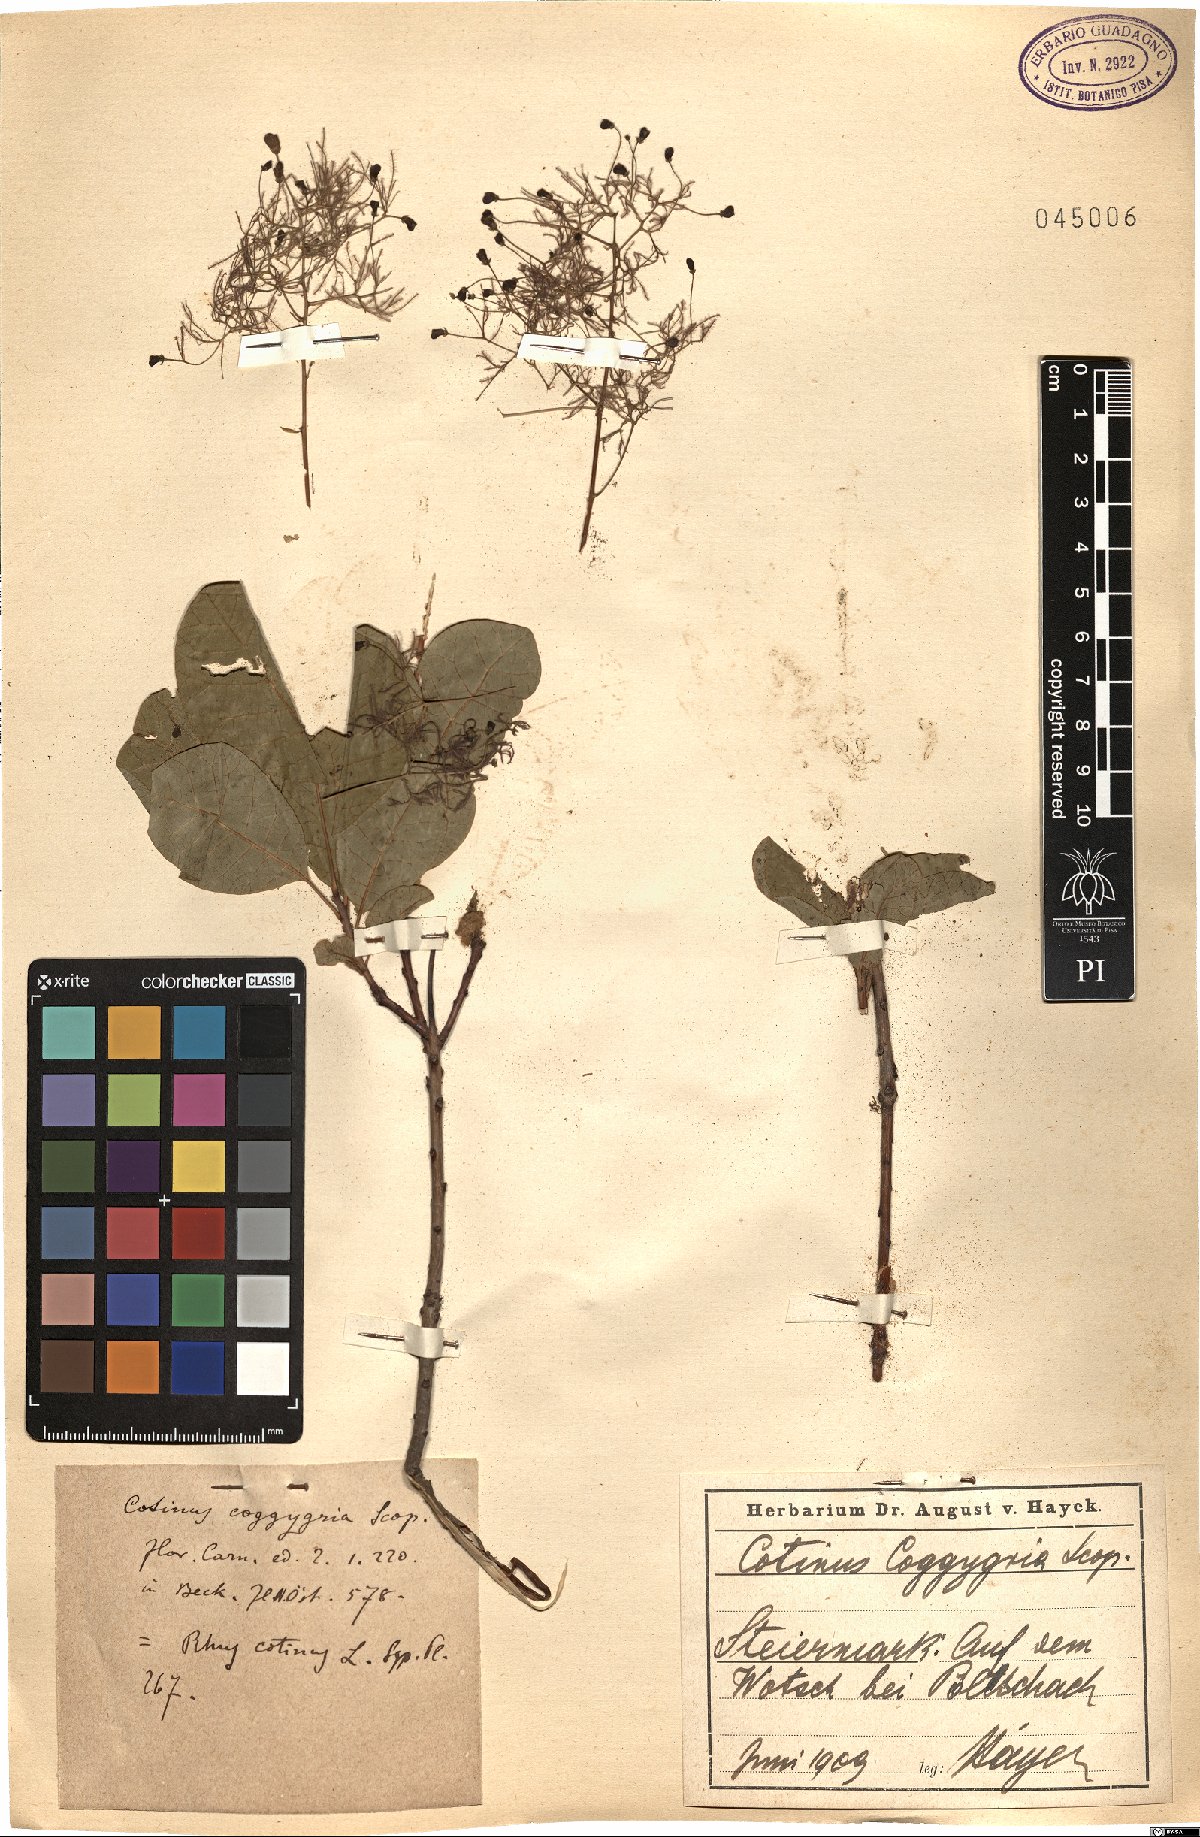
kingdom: Plantae
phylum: Tracheophyta
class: Magnoliopsida
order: Sapindales
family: Anacardiaceae
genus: Cotinus
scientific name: Cotinus coggygria
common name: Smoke-tree
